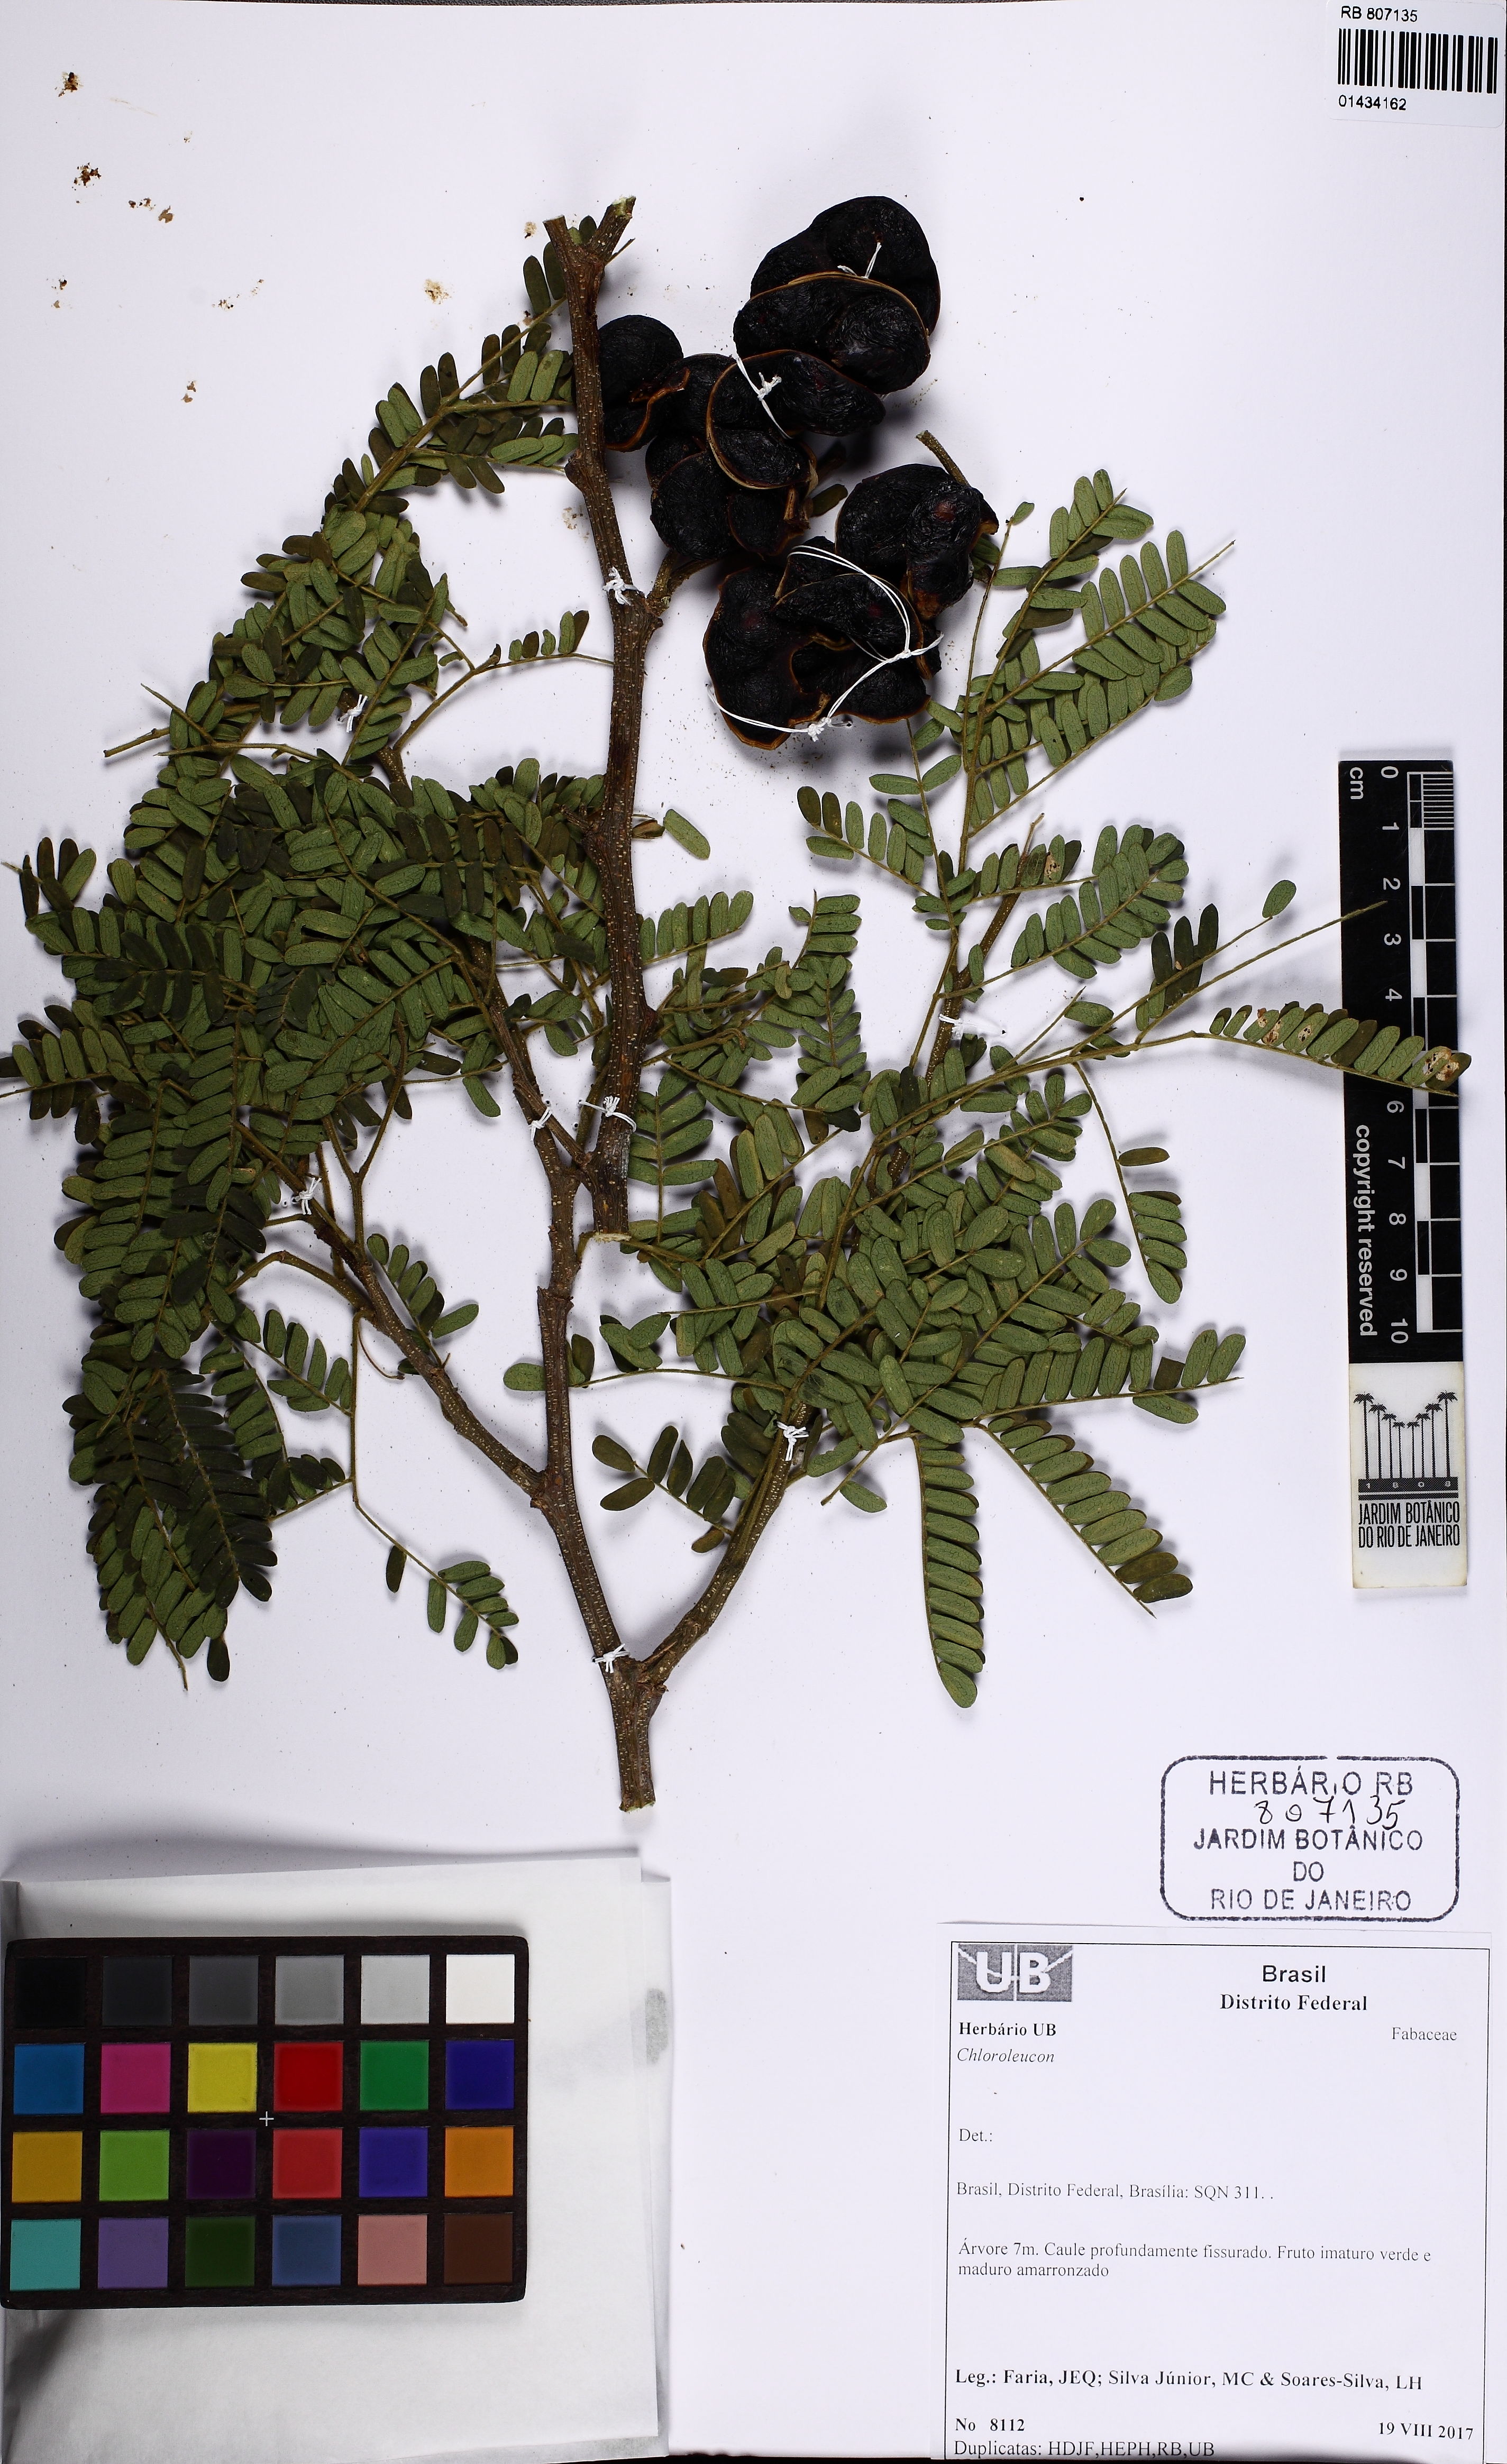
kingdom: Plantae
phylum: Tracheophyta
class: Magnoliopsida
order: Fabales
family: Fabaceae
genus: Chloroleucon
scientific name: Chloroleucon
